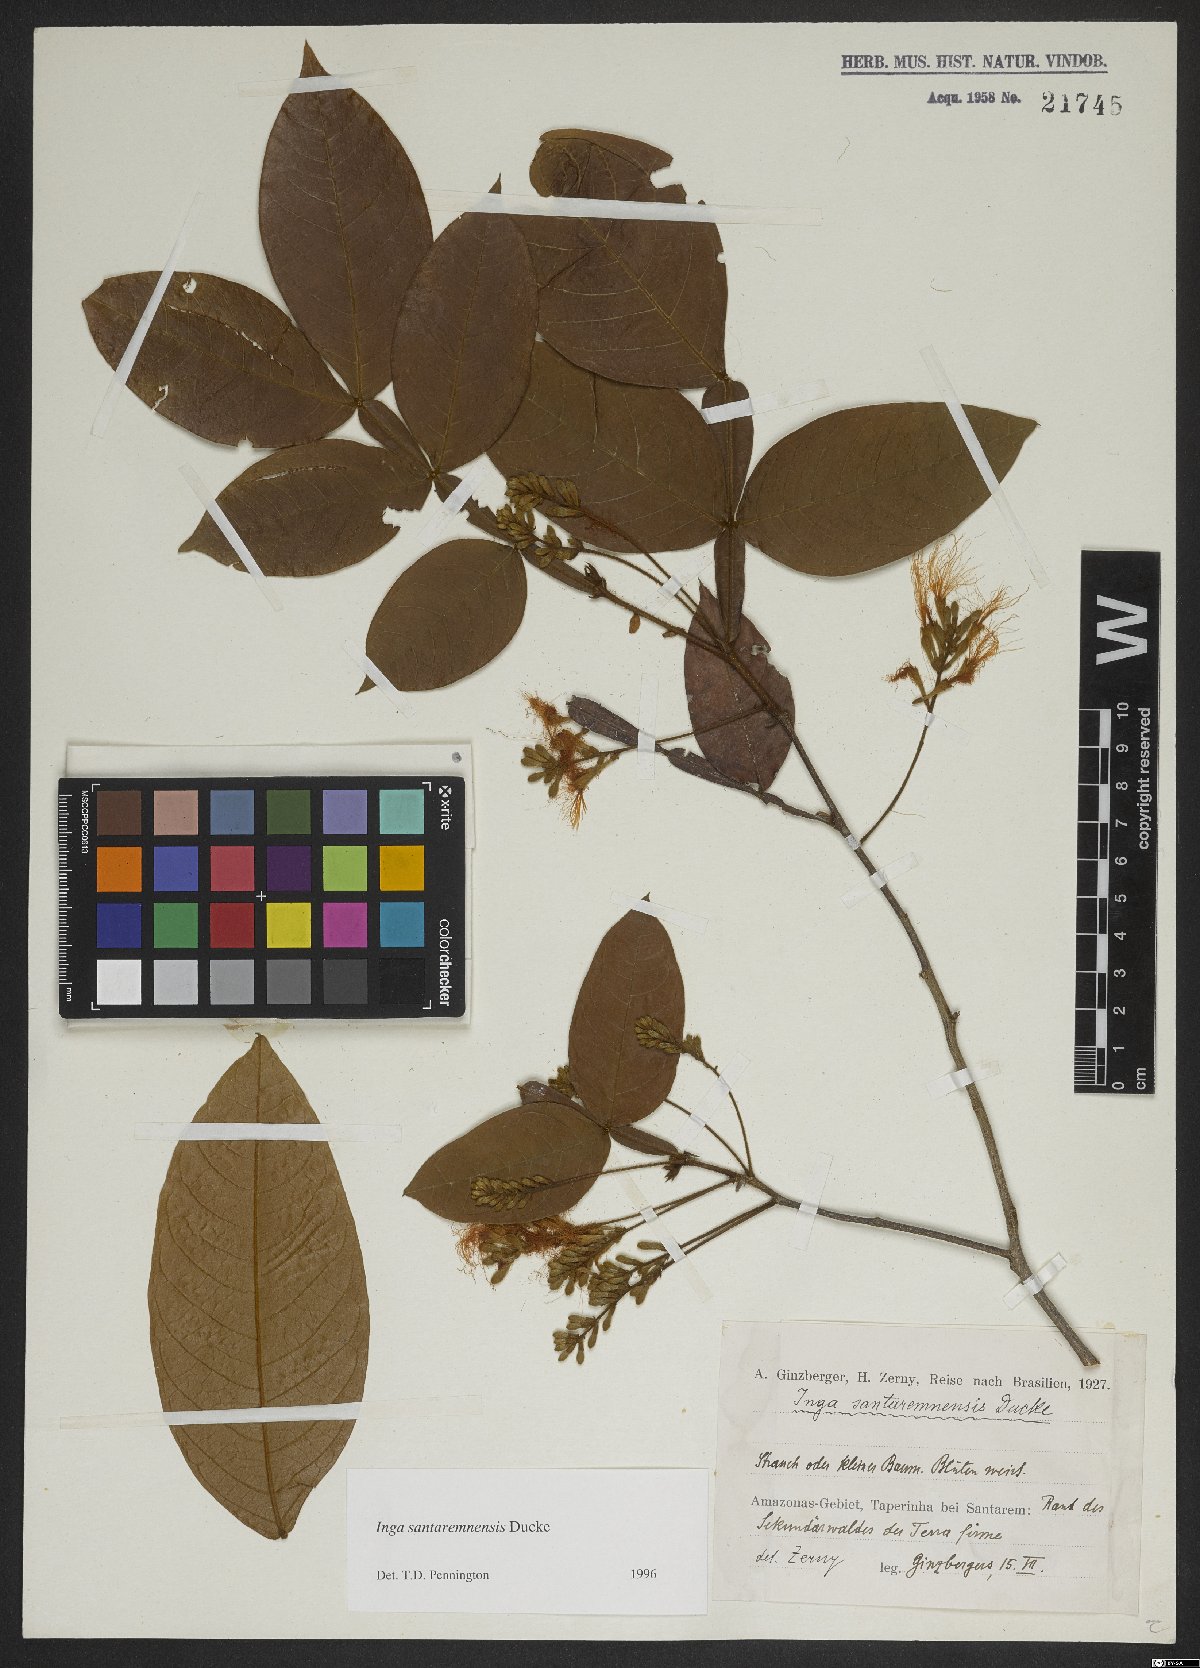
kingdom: Plantae
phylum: Tracheophyta
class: Magnoliopsida
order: Fabales
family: Fabaceae
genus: Inga
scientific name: Inga santaremnensis
